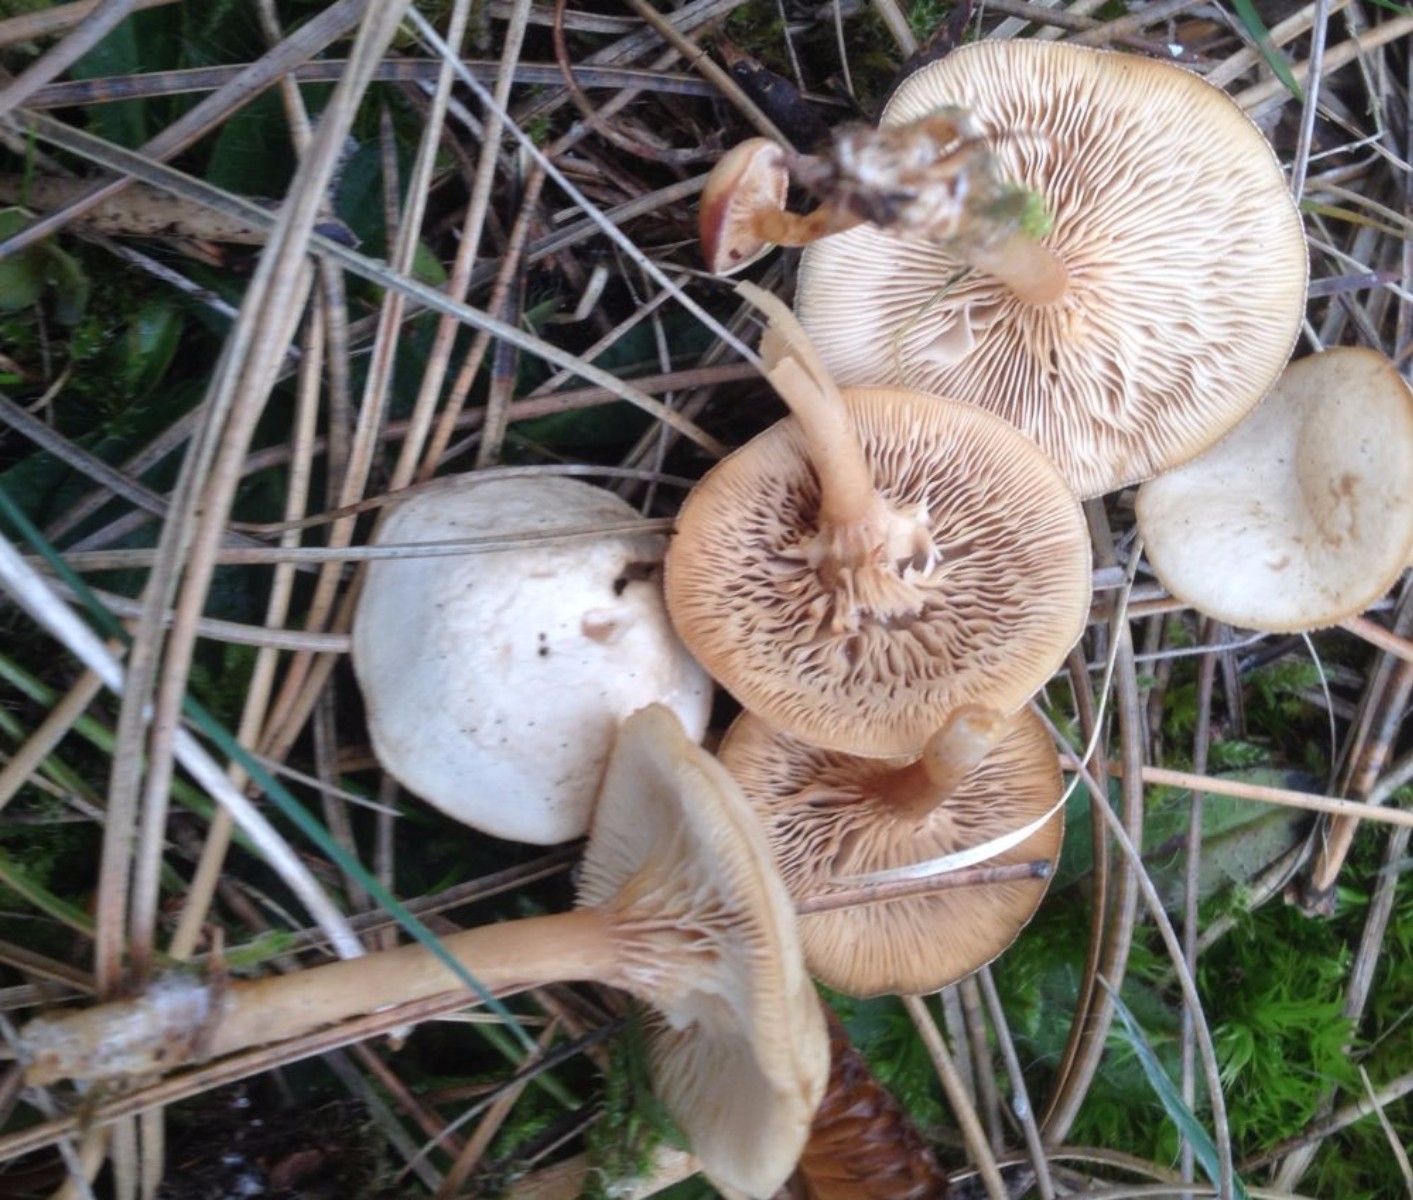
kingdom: Fungi
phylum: Basidiomycota
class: Agaricomycetes
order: Agaricales
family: Tricholomataceae
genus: Clitocybe
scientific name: Clitocybe fragrans
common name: vellugtende tragthat
